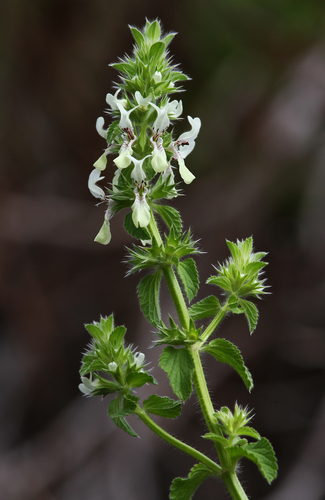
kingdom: Plantae
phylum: Tracheophyta
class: Magnoliopsida
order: Lamiales
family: Lamiaceae
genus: Stachys
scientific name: Stachys ocymastrum
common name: Italian hedgenettle
